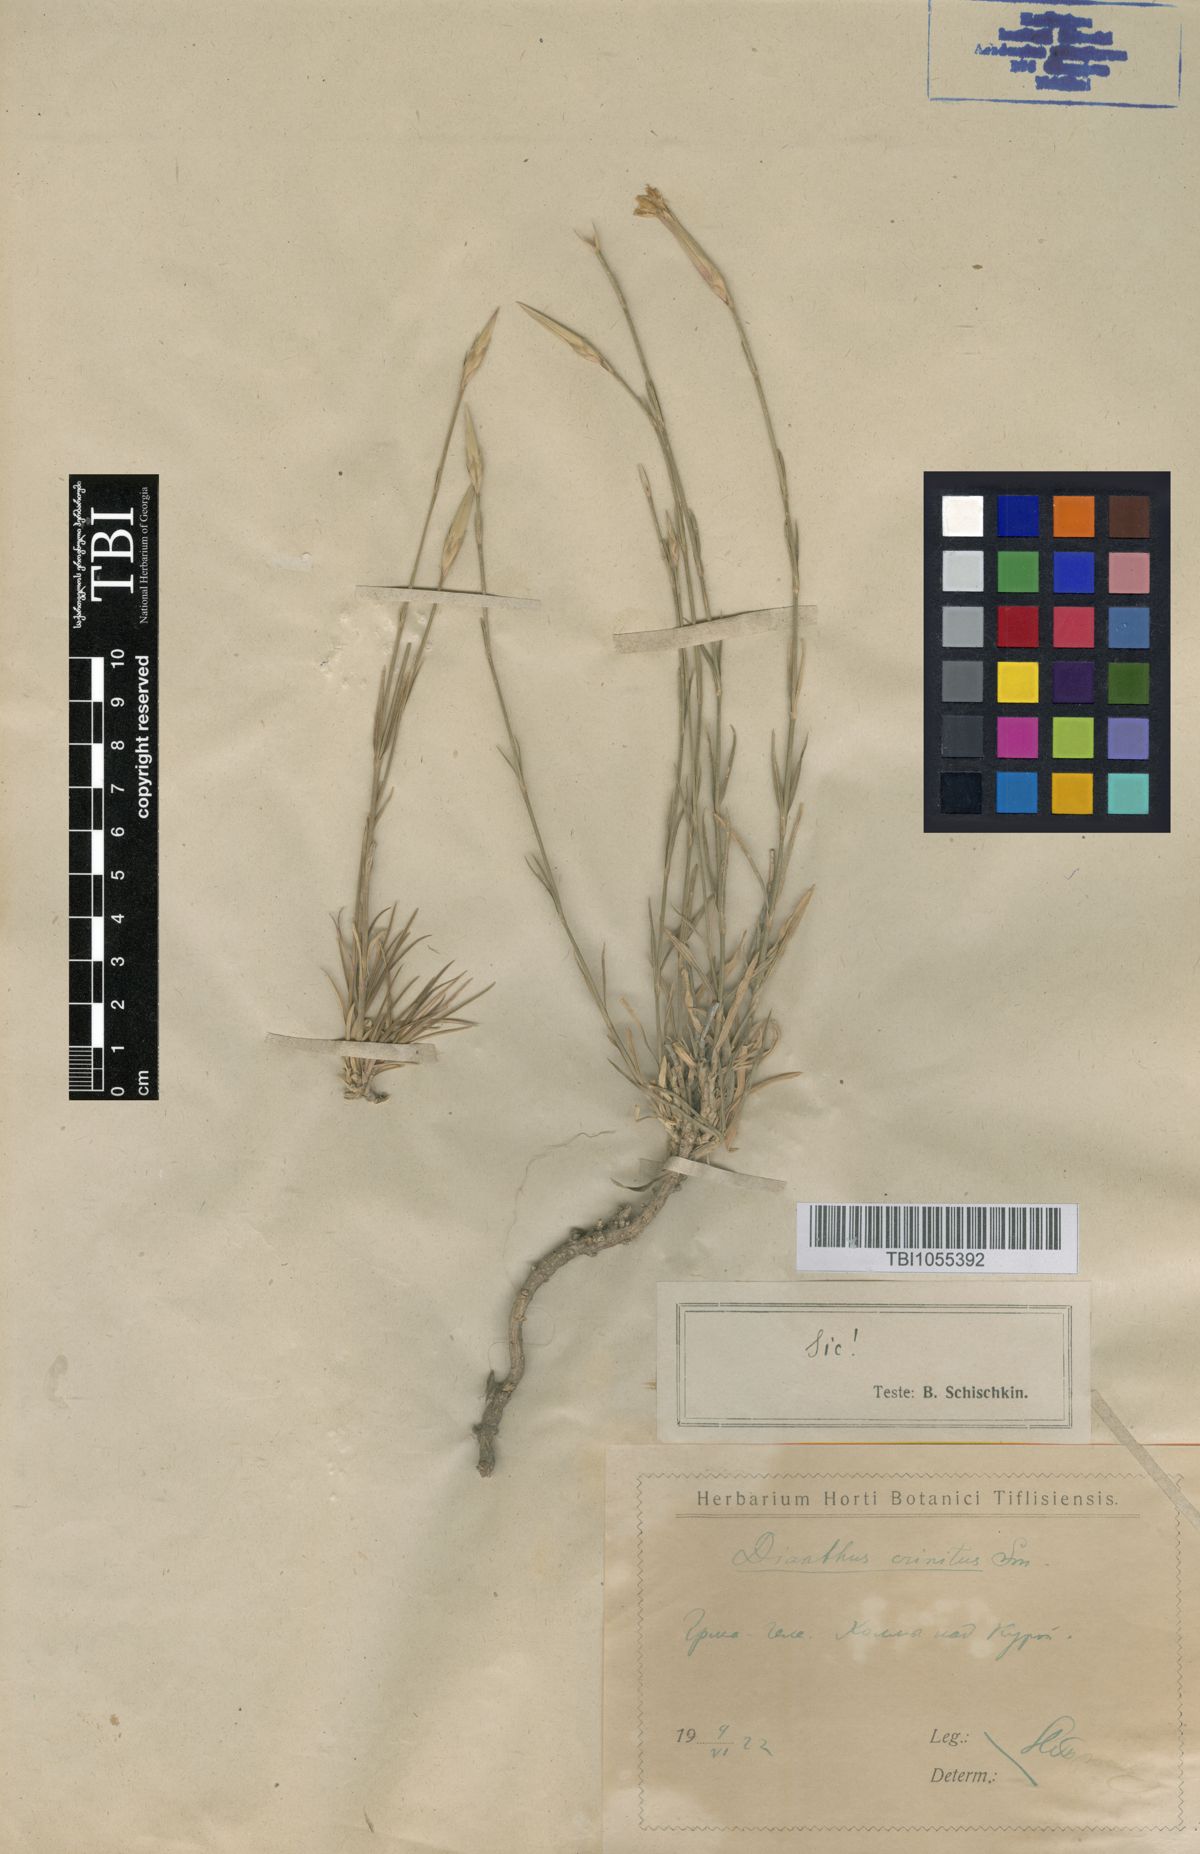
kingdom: Plantae
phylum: Tracheophyta
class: Magnoliopsida
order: Caryophyllales
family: Caryophyllaceae
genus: Dianthus
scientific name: Dianthus crinitus
